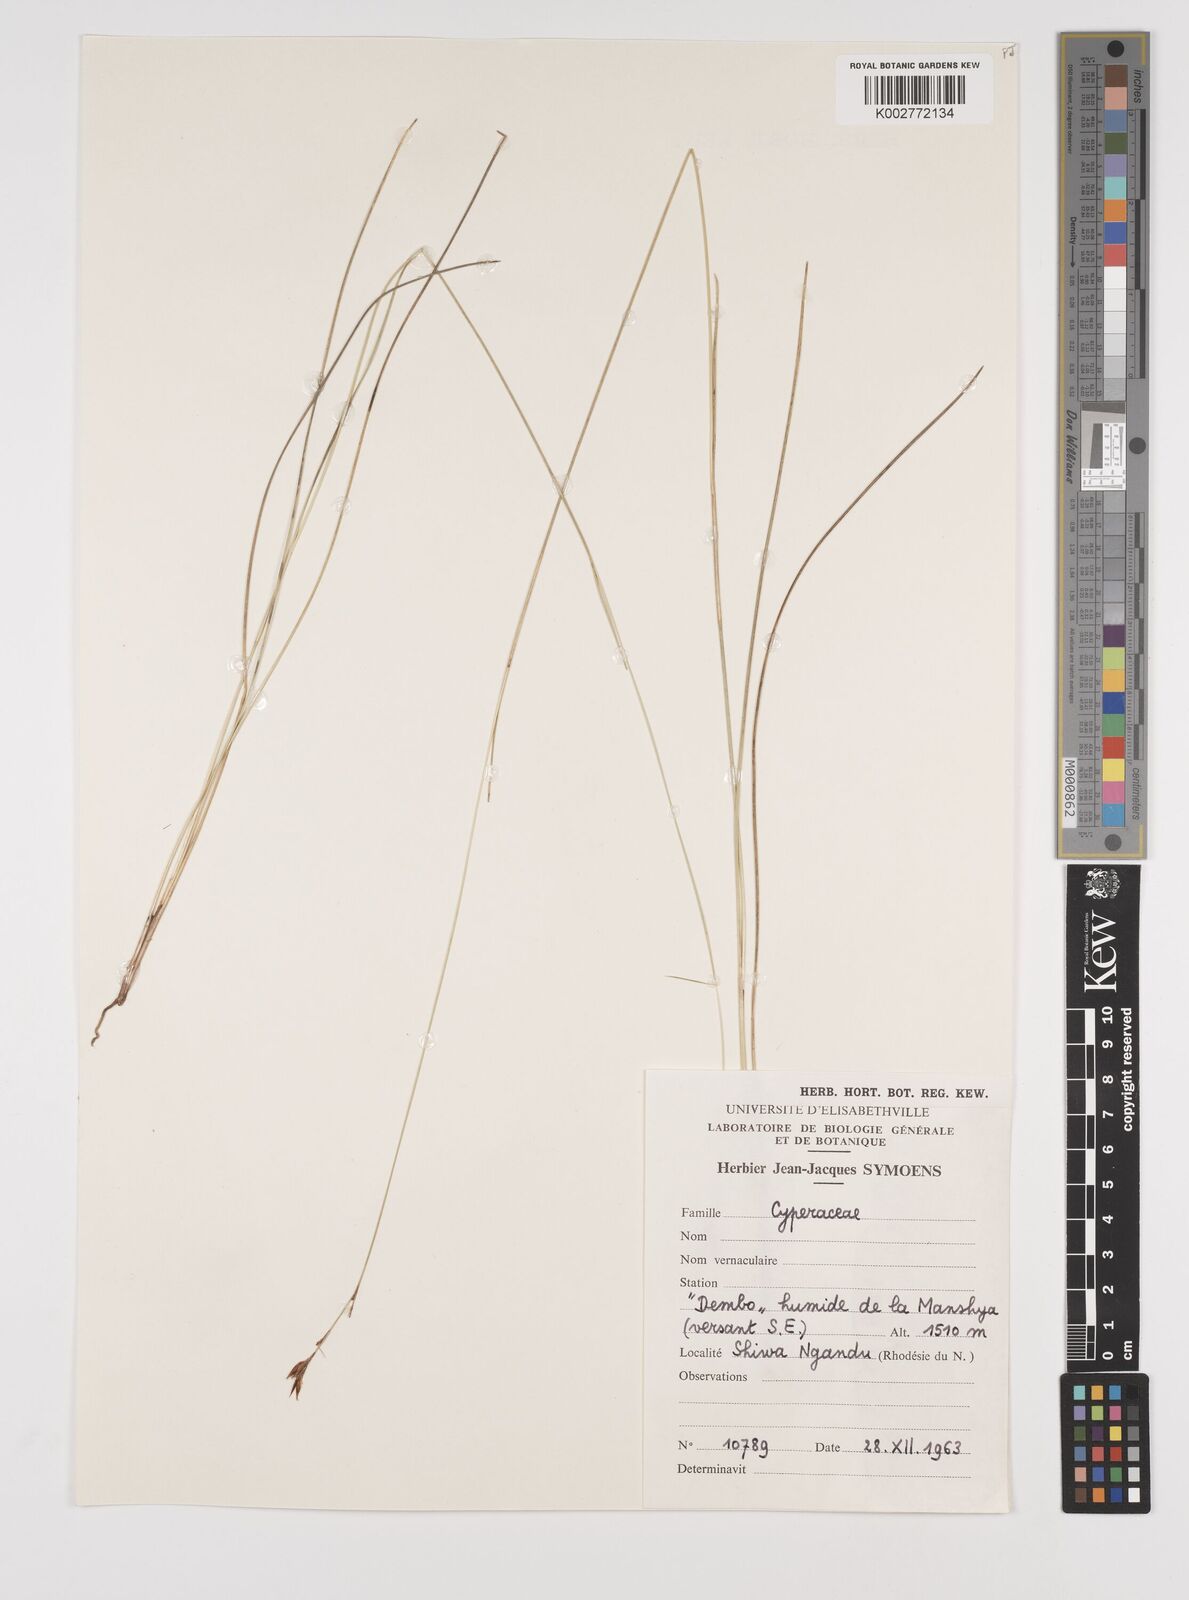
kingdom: Plantae
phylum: Tracheophyta
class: Liliopsida
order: Poales
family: Cyperaceae
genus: Rhynchospora
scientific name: Rhynchospora
